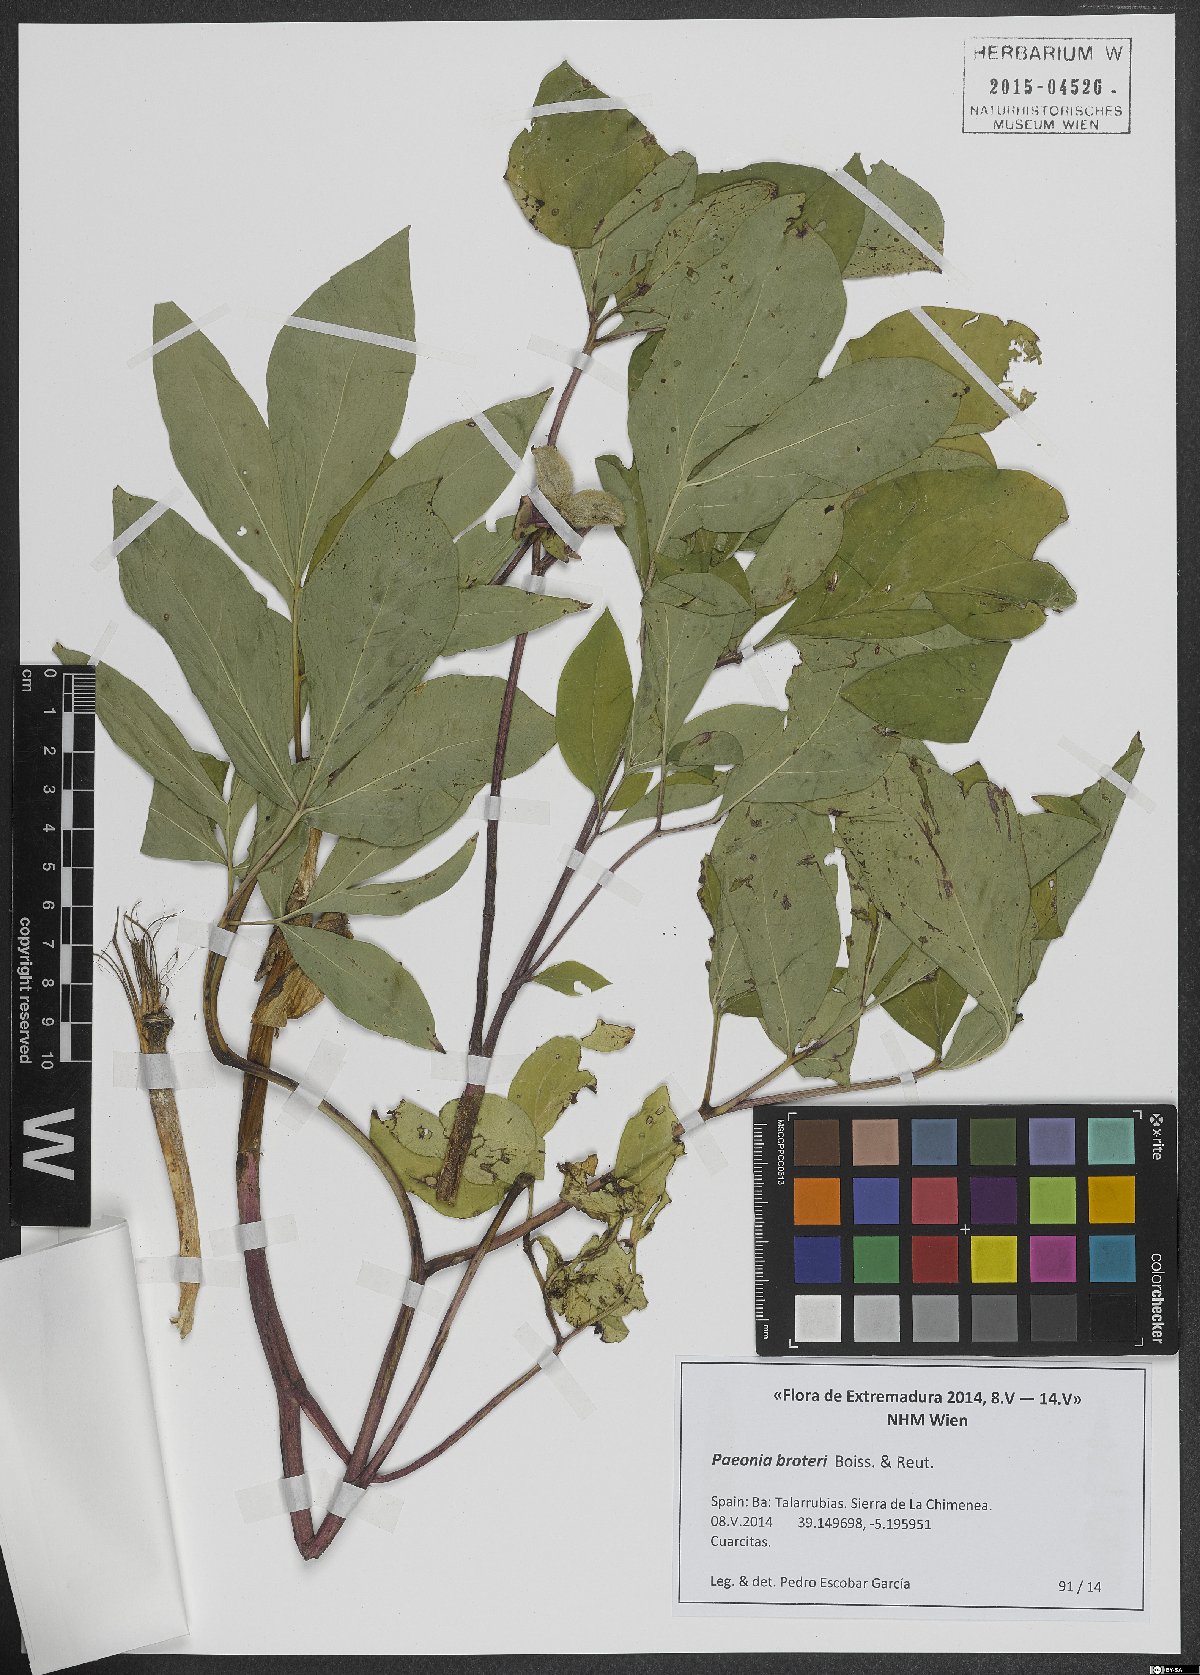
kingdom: Plantae
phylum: Tracheophyta
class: Magnoliopsida
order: Saxifragales
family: Paeoniaceae
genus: Paeonia
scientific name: Paeonia broteroi
